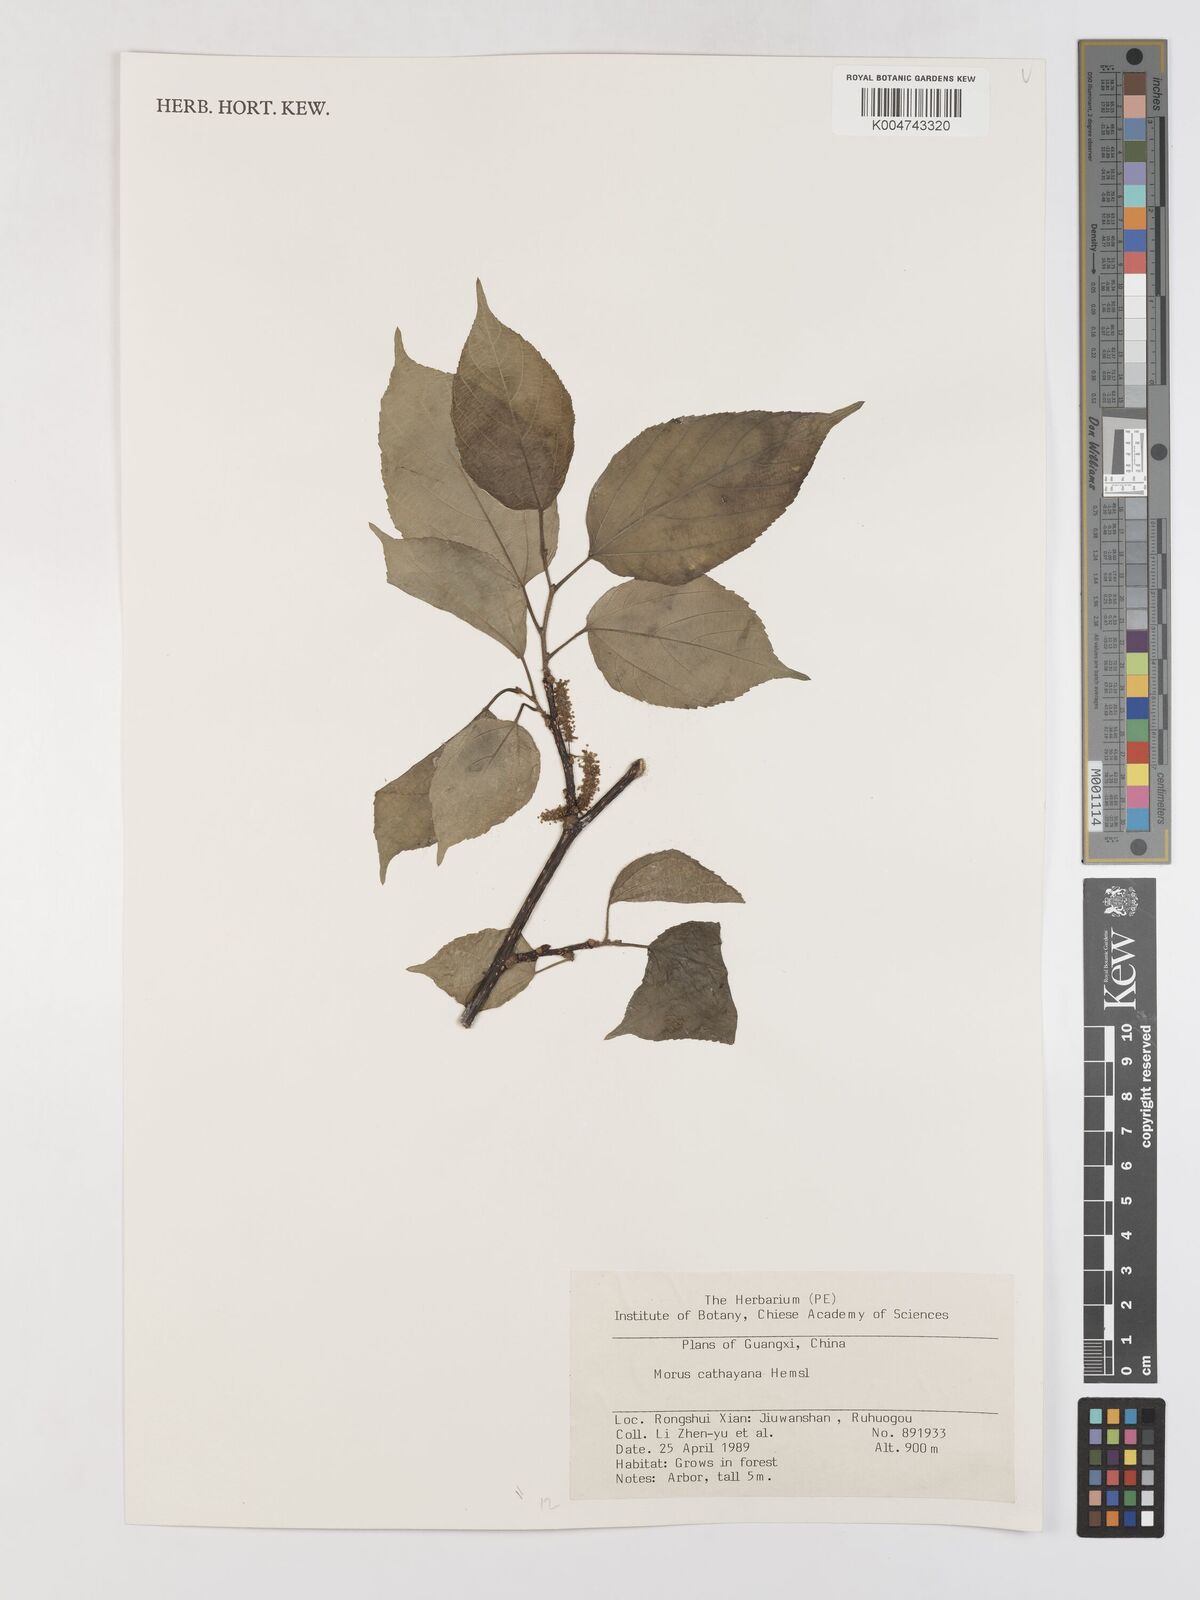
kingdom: Plantae
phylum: Tracheophyta
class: Magnoliopsida
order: Rosales
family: Moraceae
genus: Morus
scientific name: Morus cathayana
